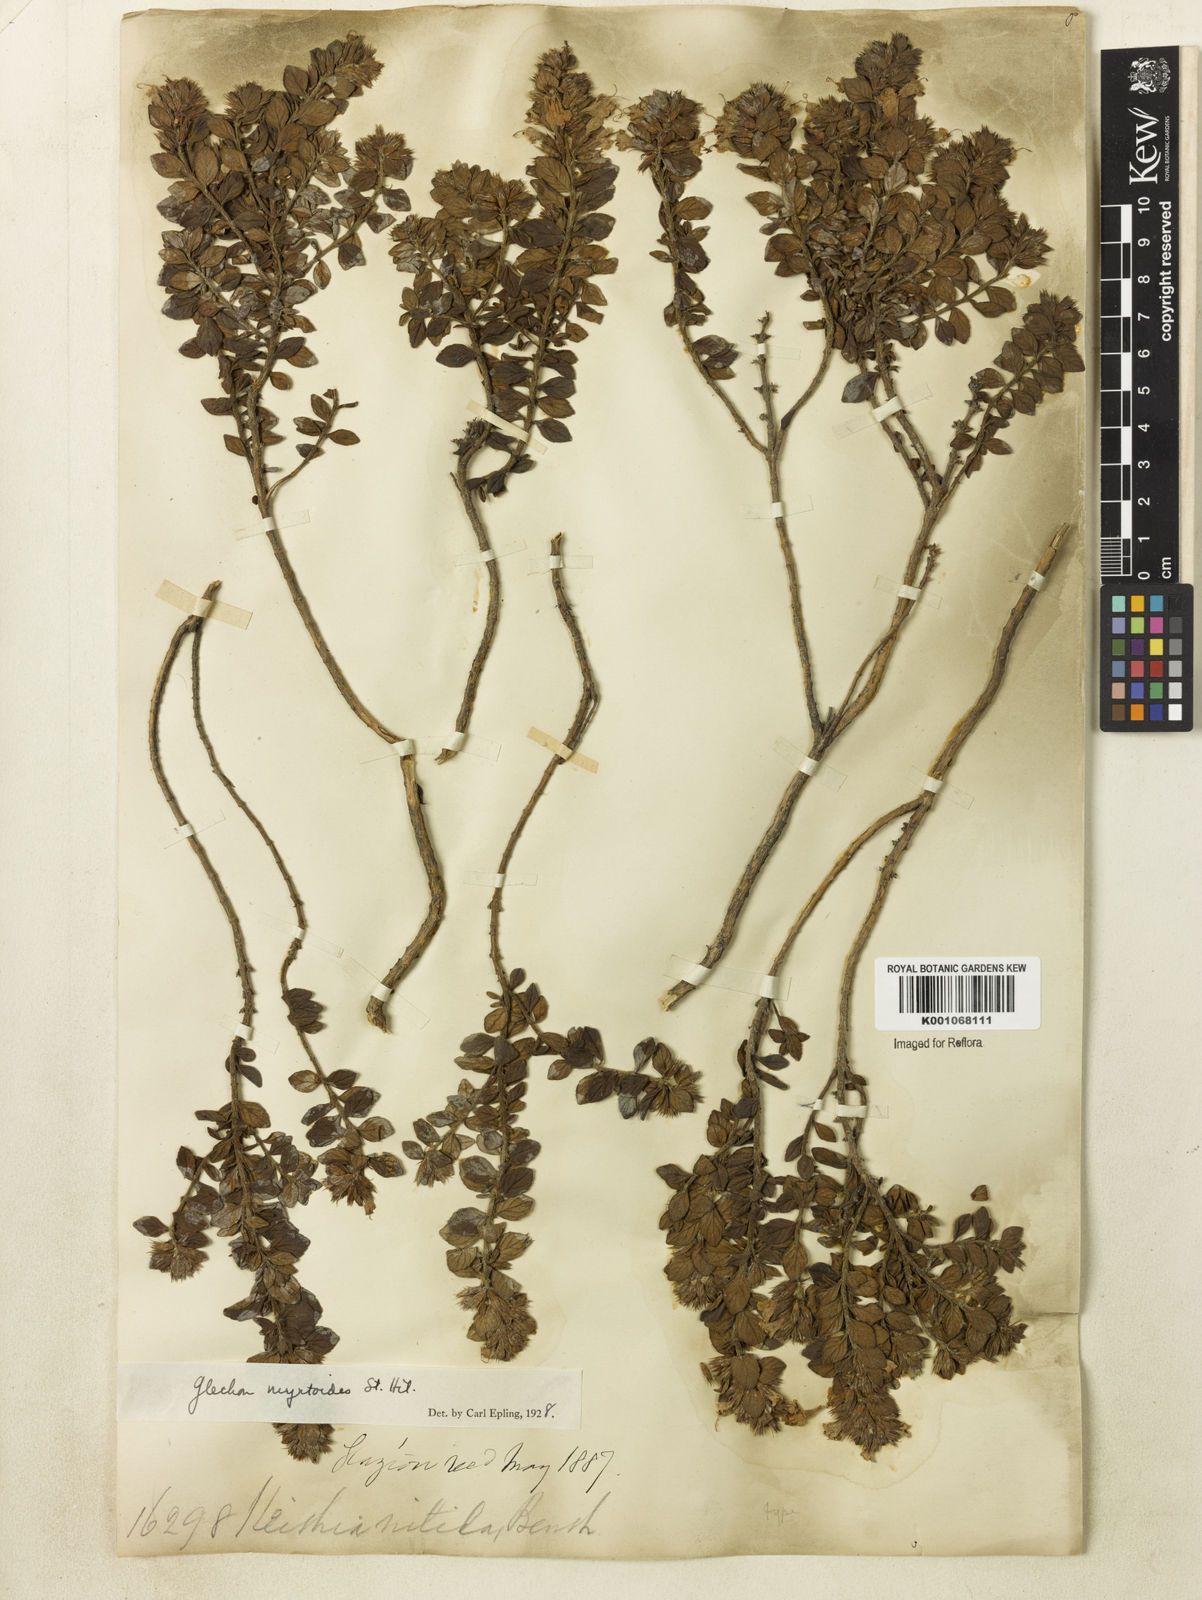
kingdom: Plantae
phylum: Tracheophyta
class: Magnoliopsida
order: Lamiales
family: Lamiaceae
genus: Hesperozygis
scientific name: Hesperozygis myrtoides
